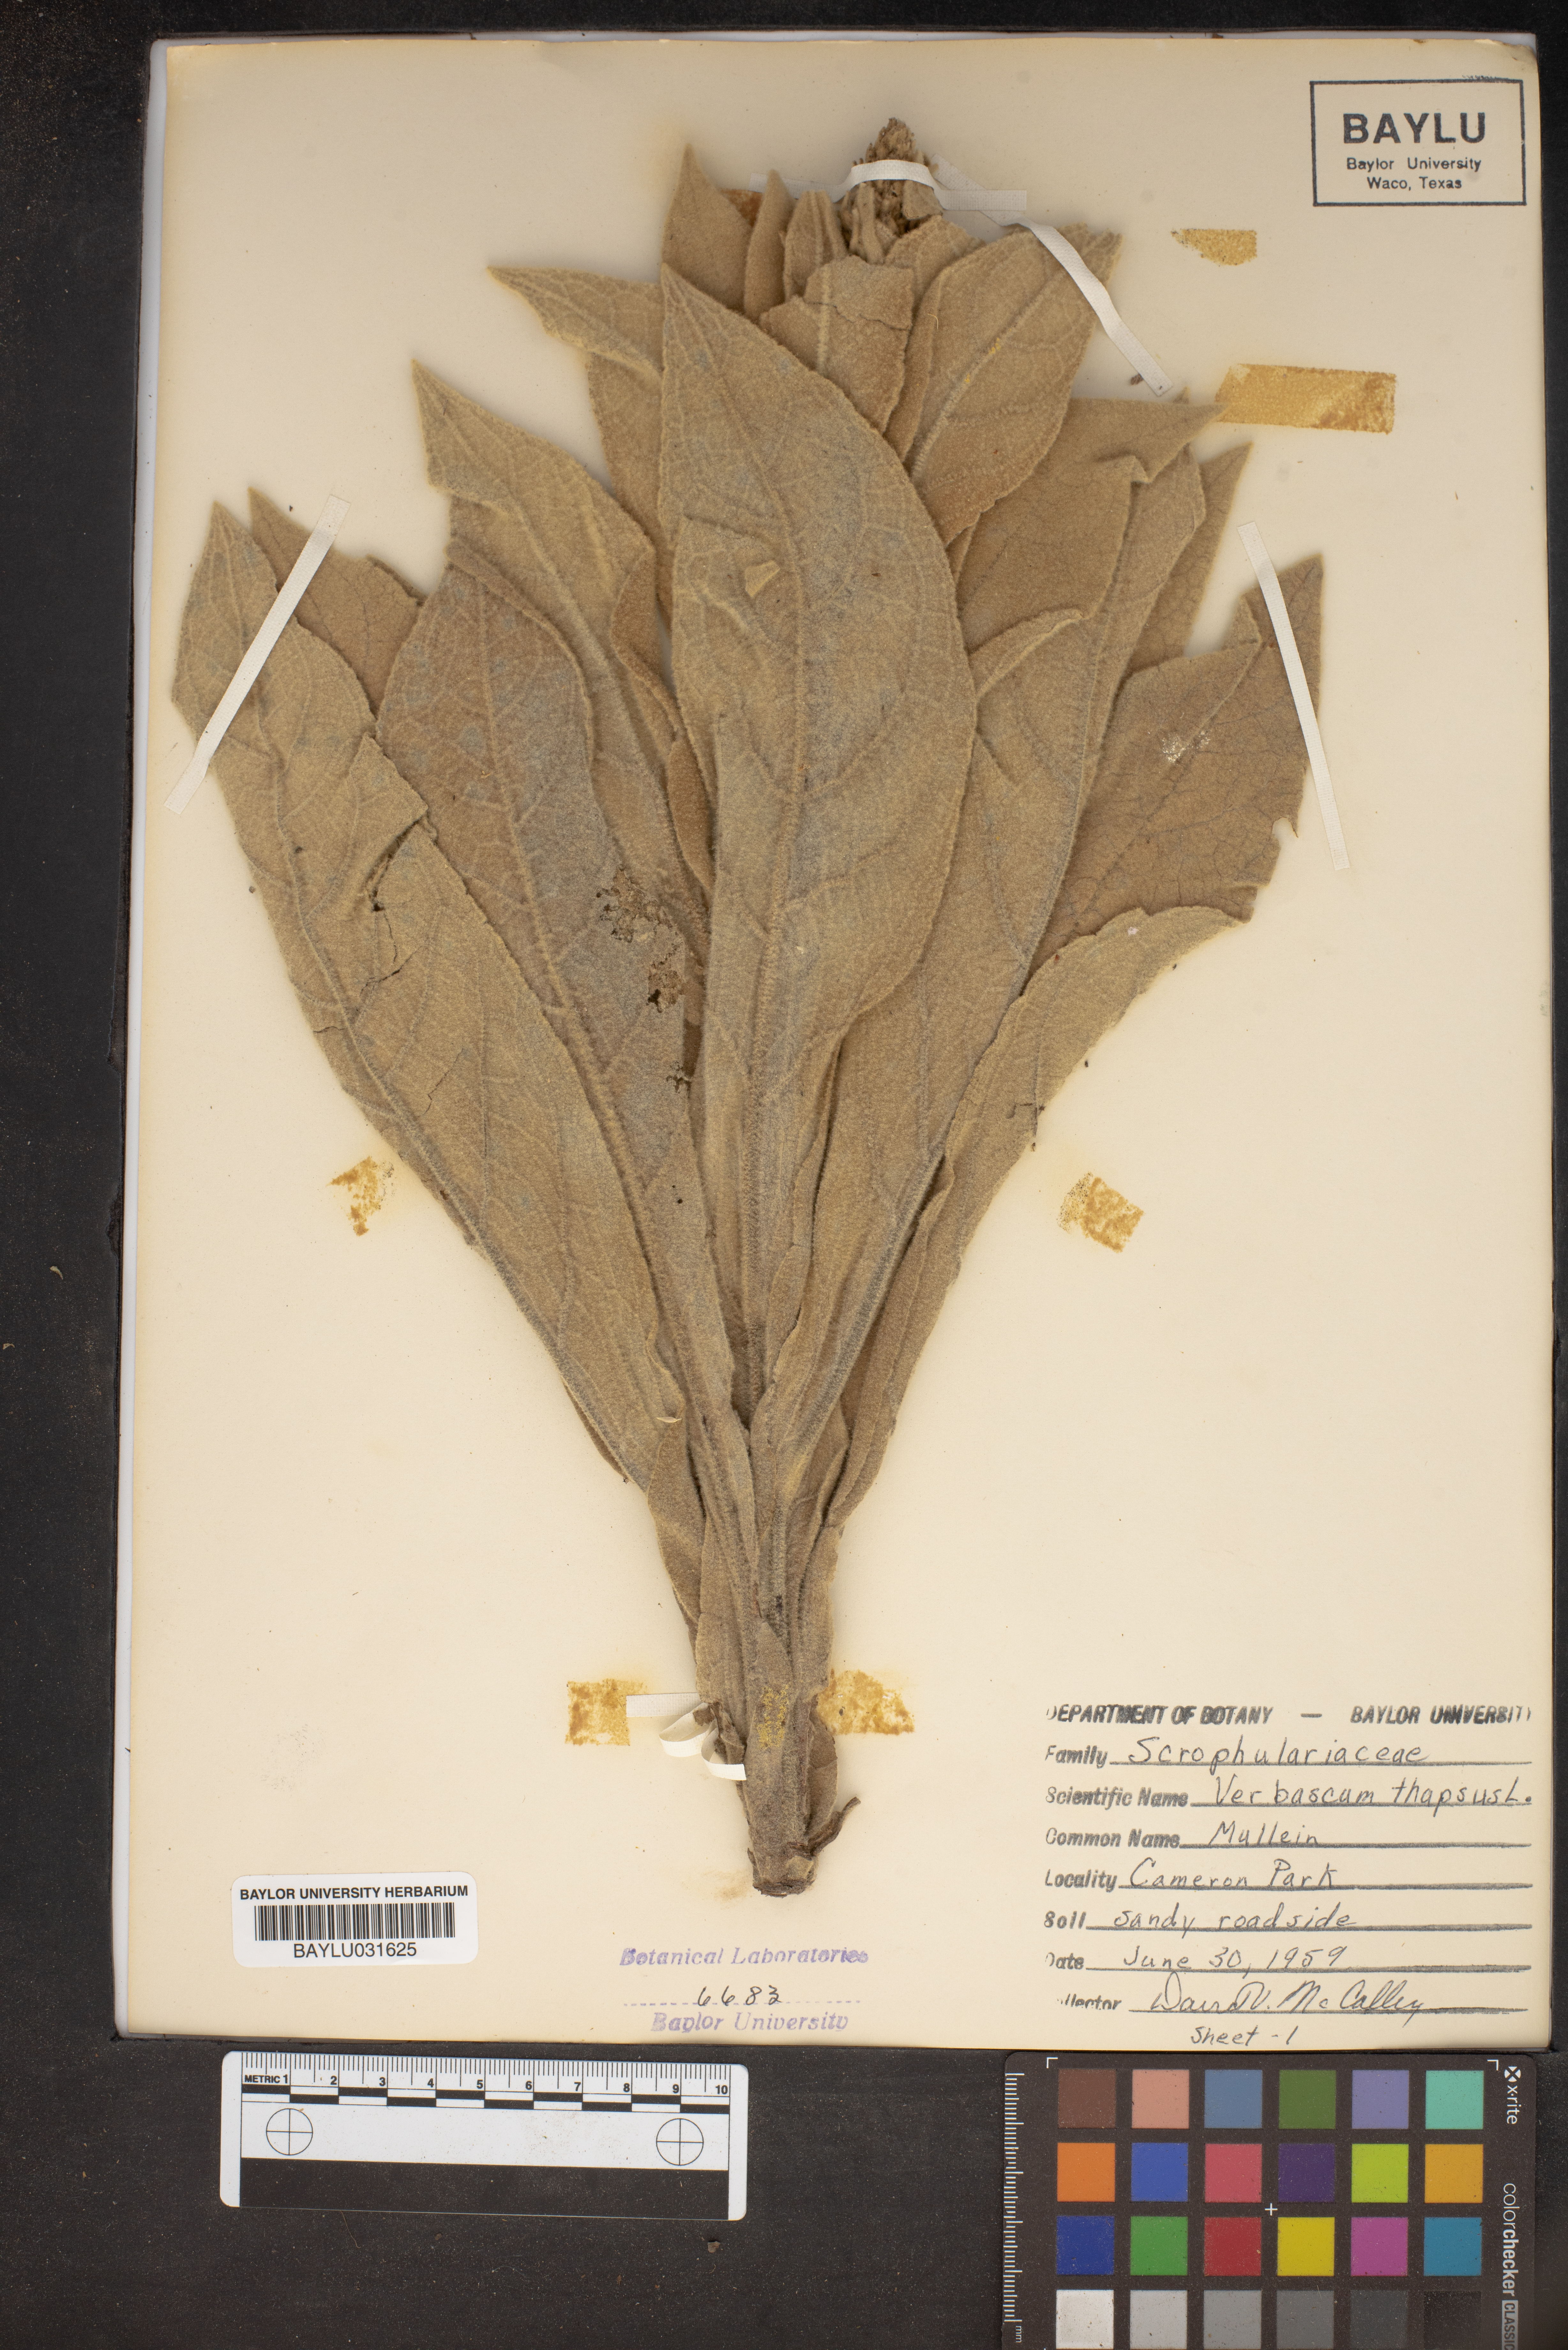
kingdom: Plantae
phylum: Tracheophyta
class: Magnoliopsida
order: Lamiales
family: Scrophulariaceae
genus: Verbascum
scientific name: Verbascum thapsus
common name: Common mullein
